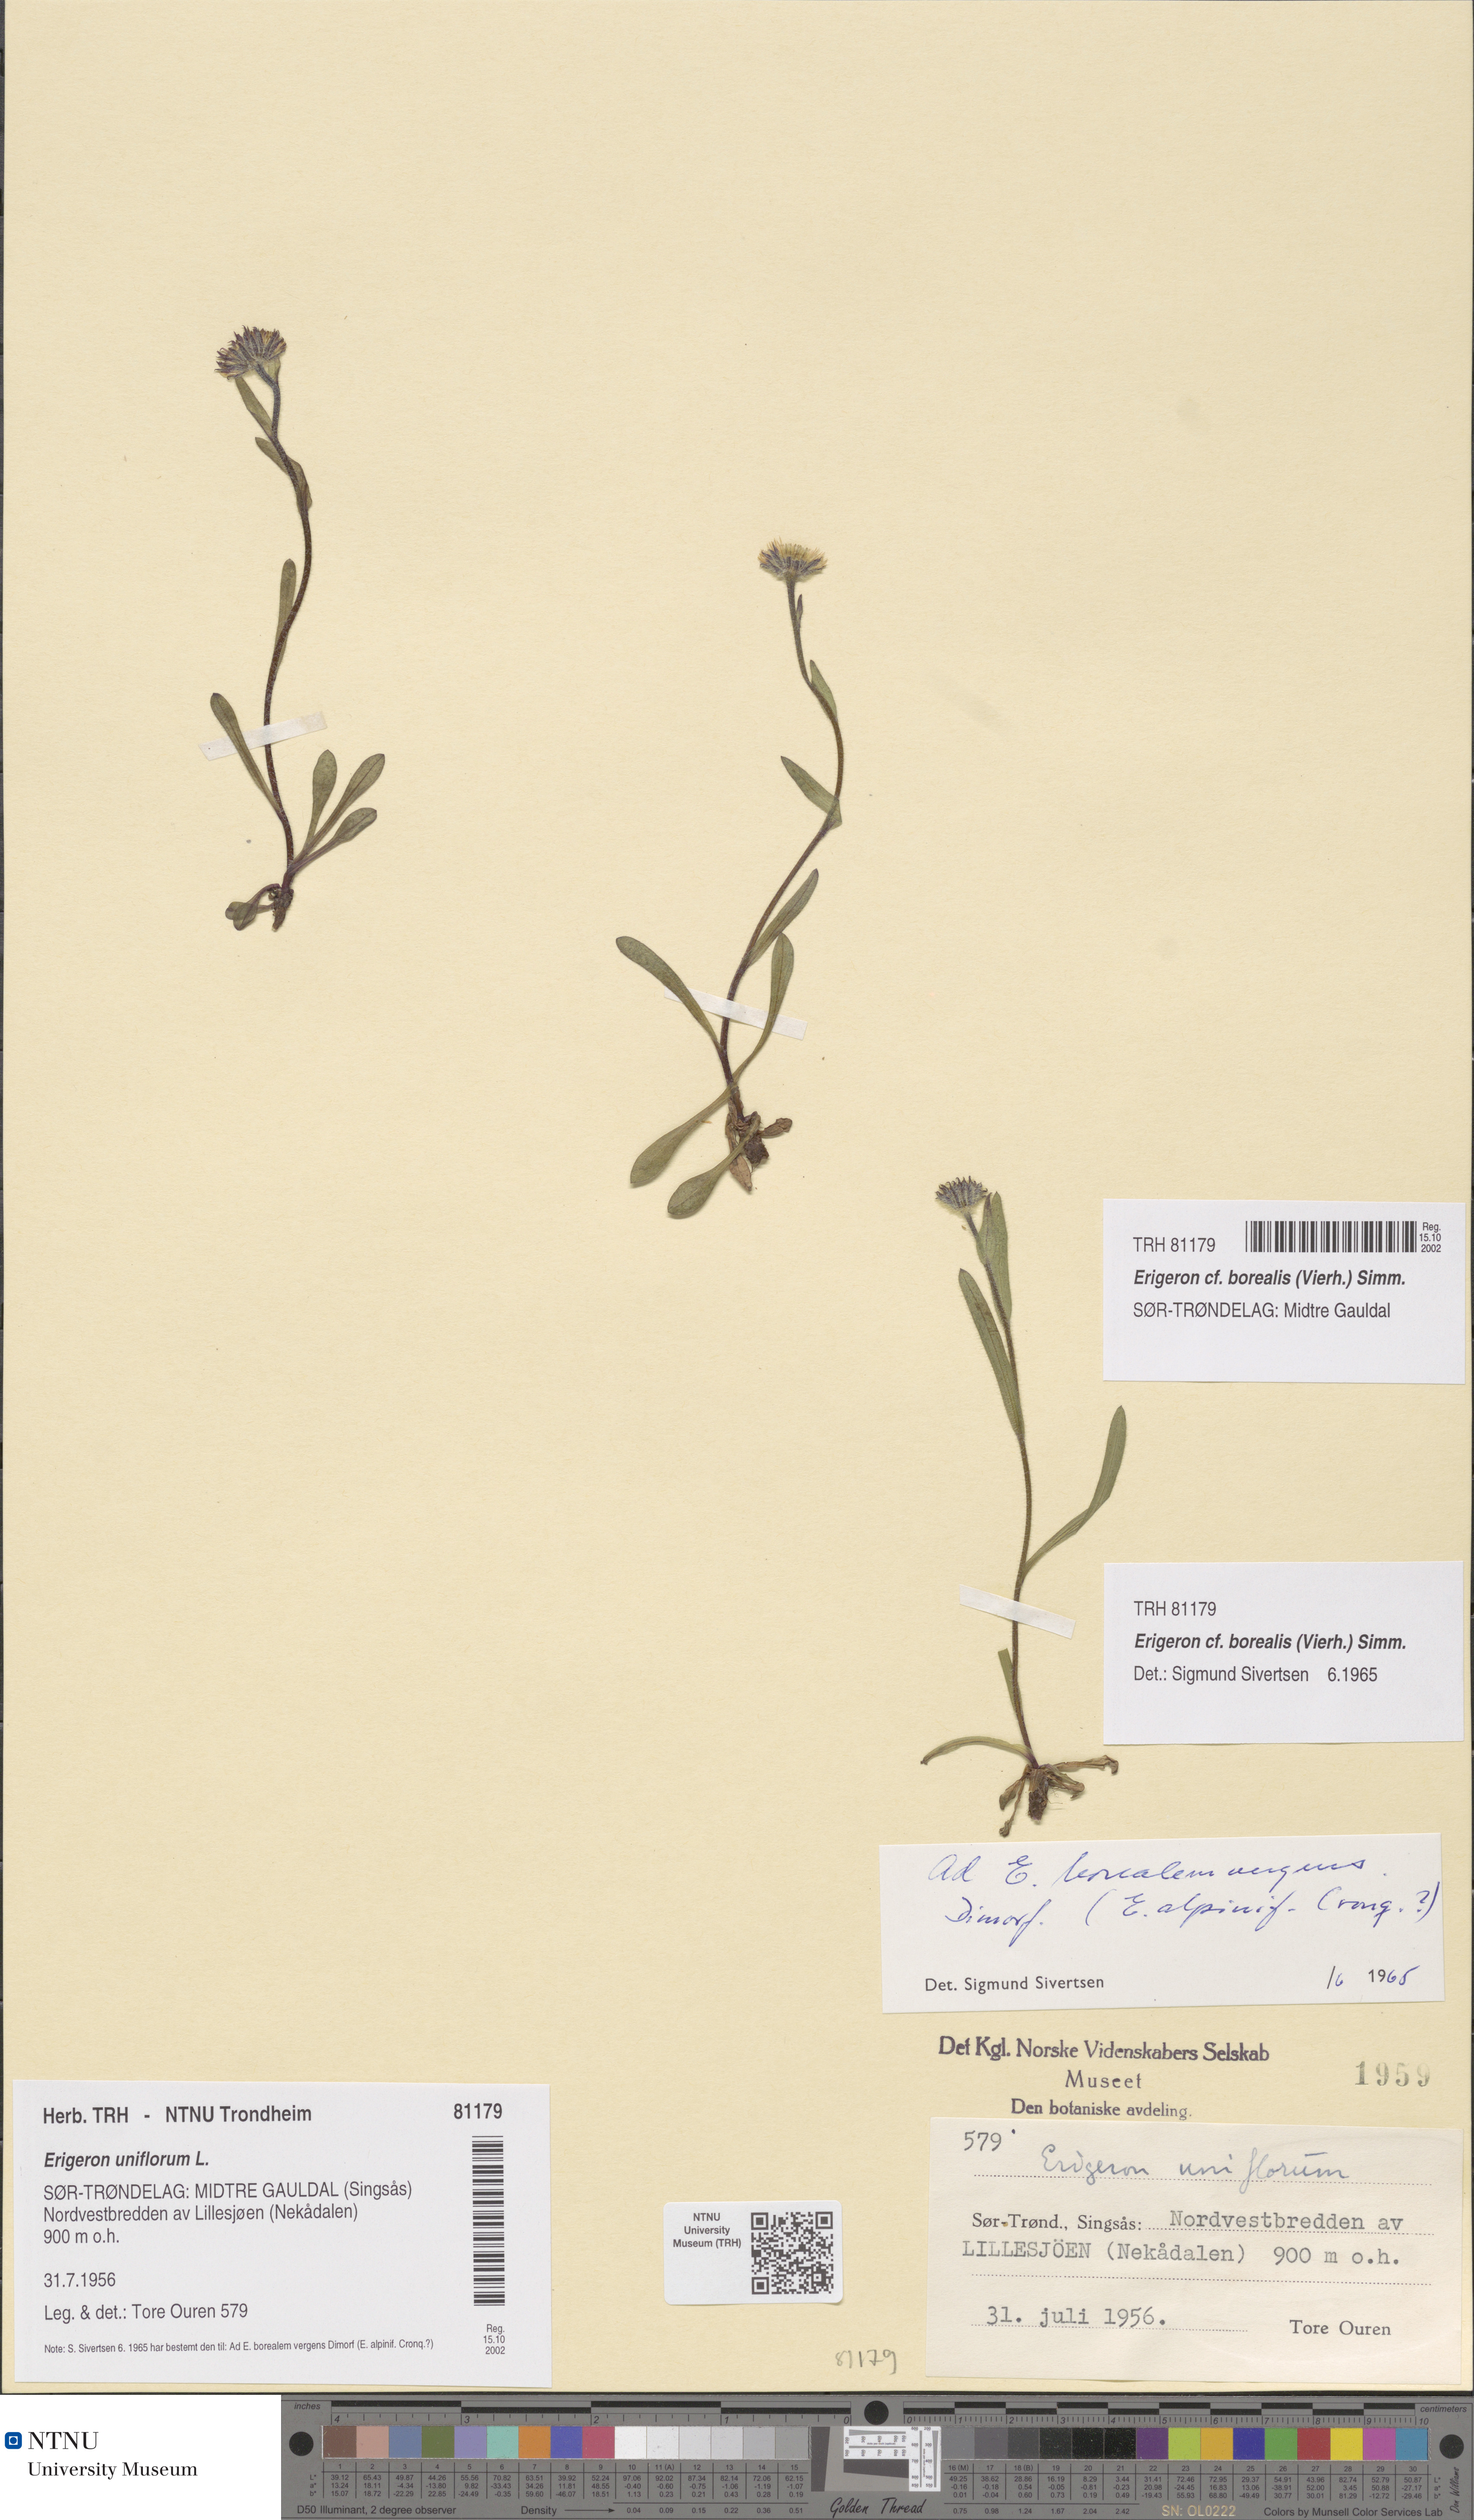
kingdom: Plantae
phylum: Tracheophyta
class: Magnoliopsida
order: Asterales
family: Asteraceae
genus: Erigeron
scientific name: Erigeron borealis
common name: Alpine fleabane
